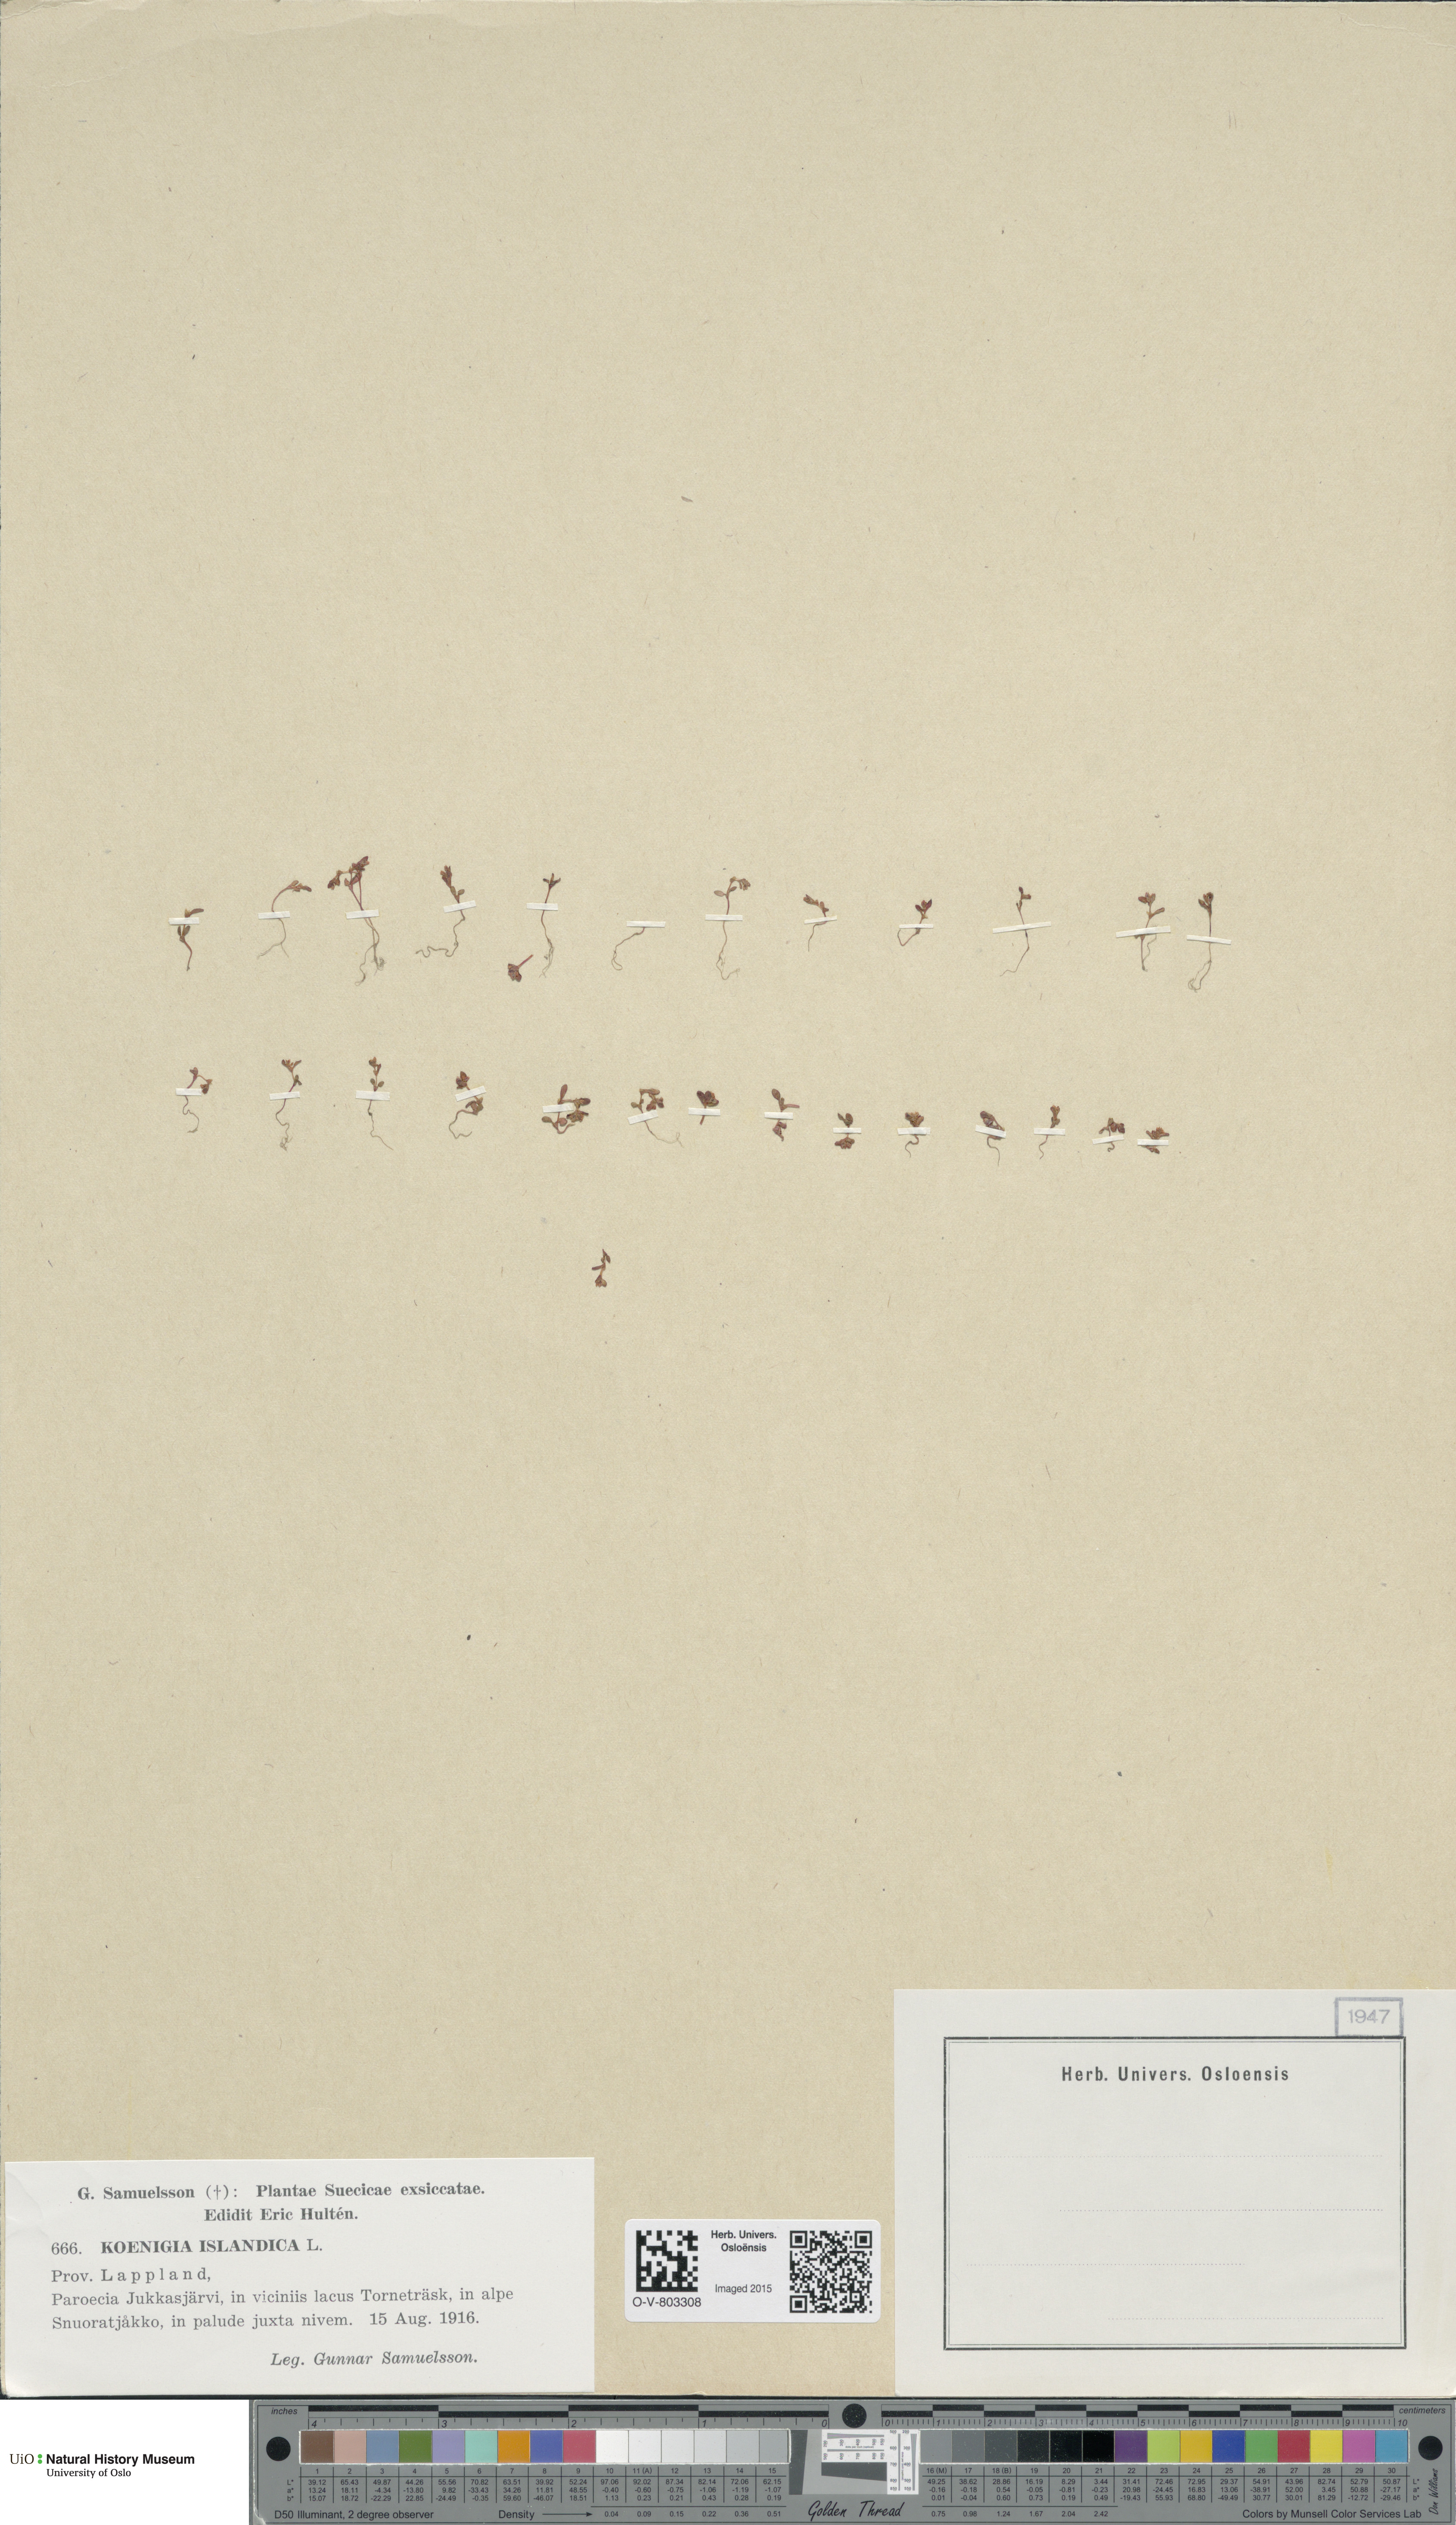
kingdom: Plantae
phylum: Tracheophyta
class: Magnoliopsida
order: Caryophyllales
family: Polygonaceae
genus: Koenigia
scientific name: Koenigia islandica
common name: Iceland-purslane
